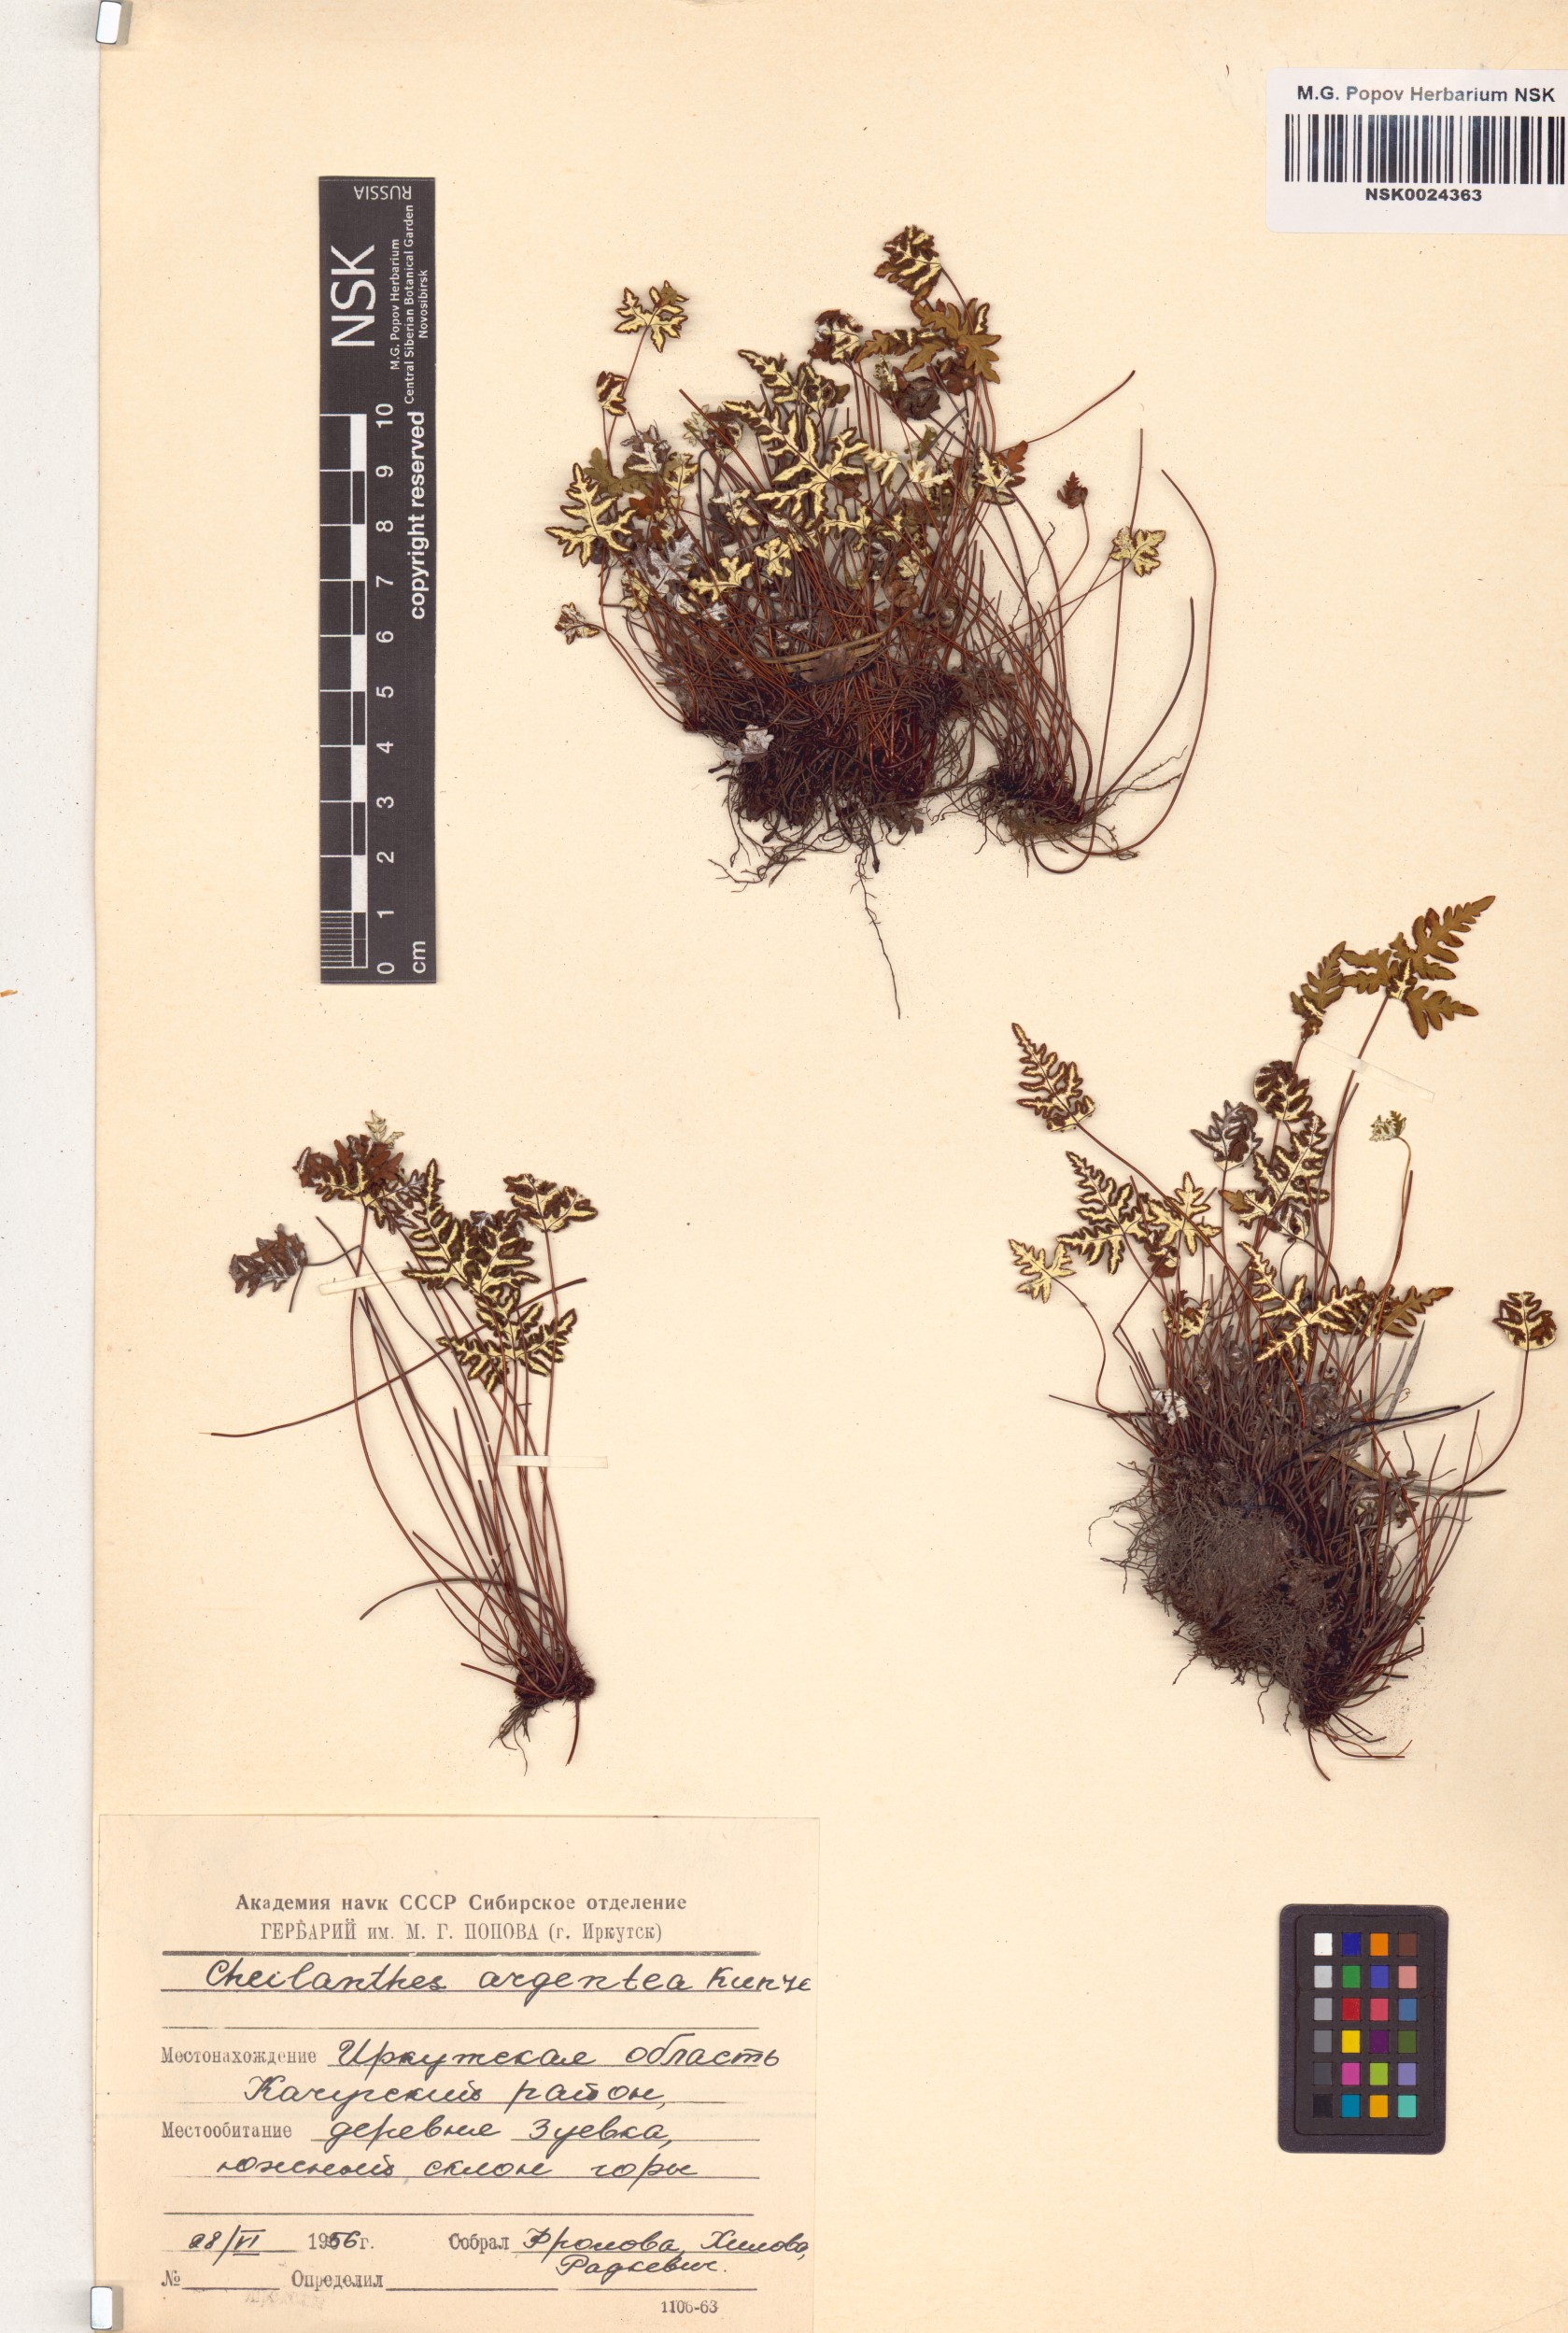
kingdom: Plantae
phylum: Tracheophyta
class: Polypodiopsida
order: Polypodiales
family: Pteridaceae
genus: Aleuritopteris
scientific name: Aleuritopteris argentea
